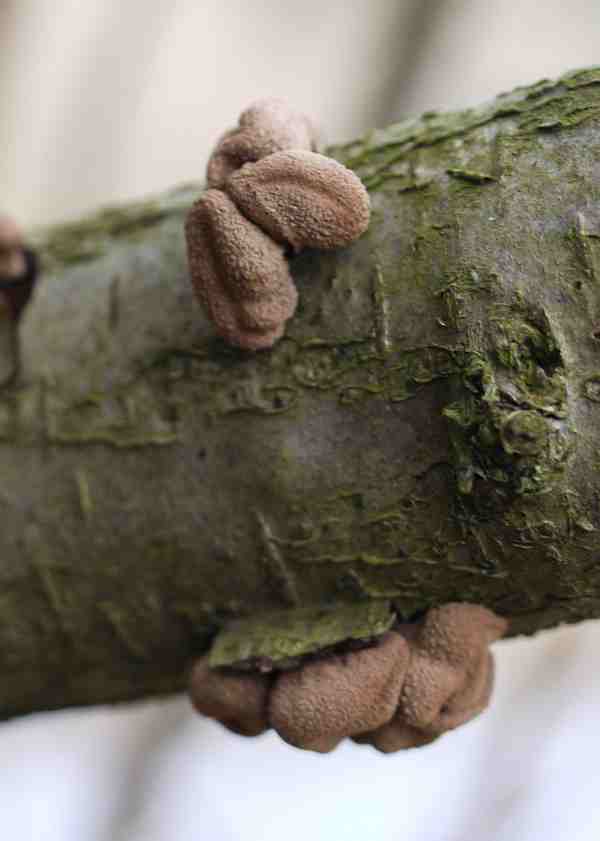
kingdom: Fungi
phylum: Ascomycota
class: Leotiomycetes
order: Helotiales
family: Cenangiaceae
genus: Encoelia
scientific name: Encoelia furfuracea
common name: hassel-læderskive
